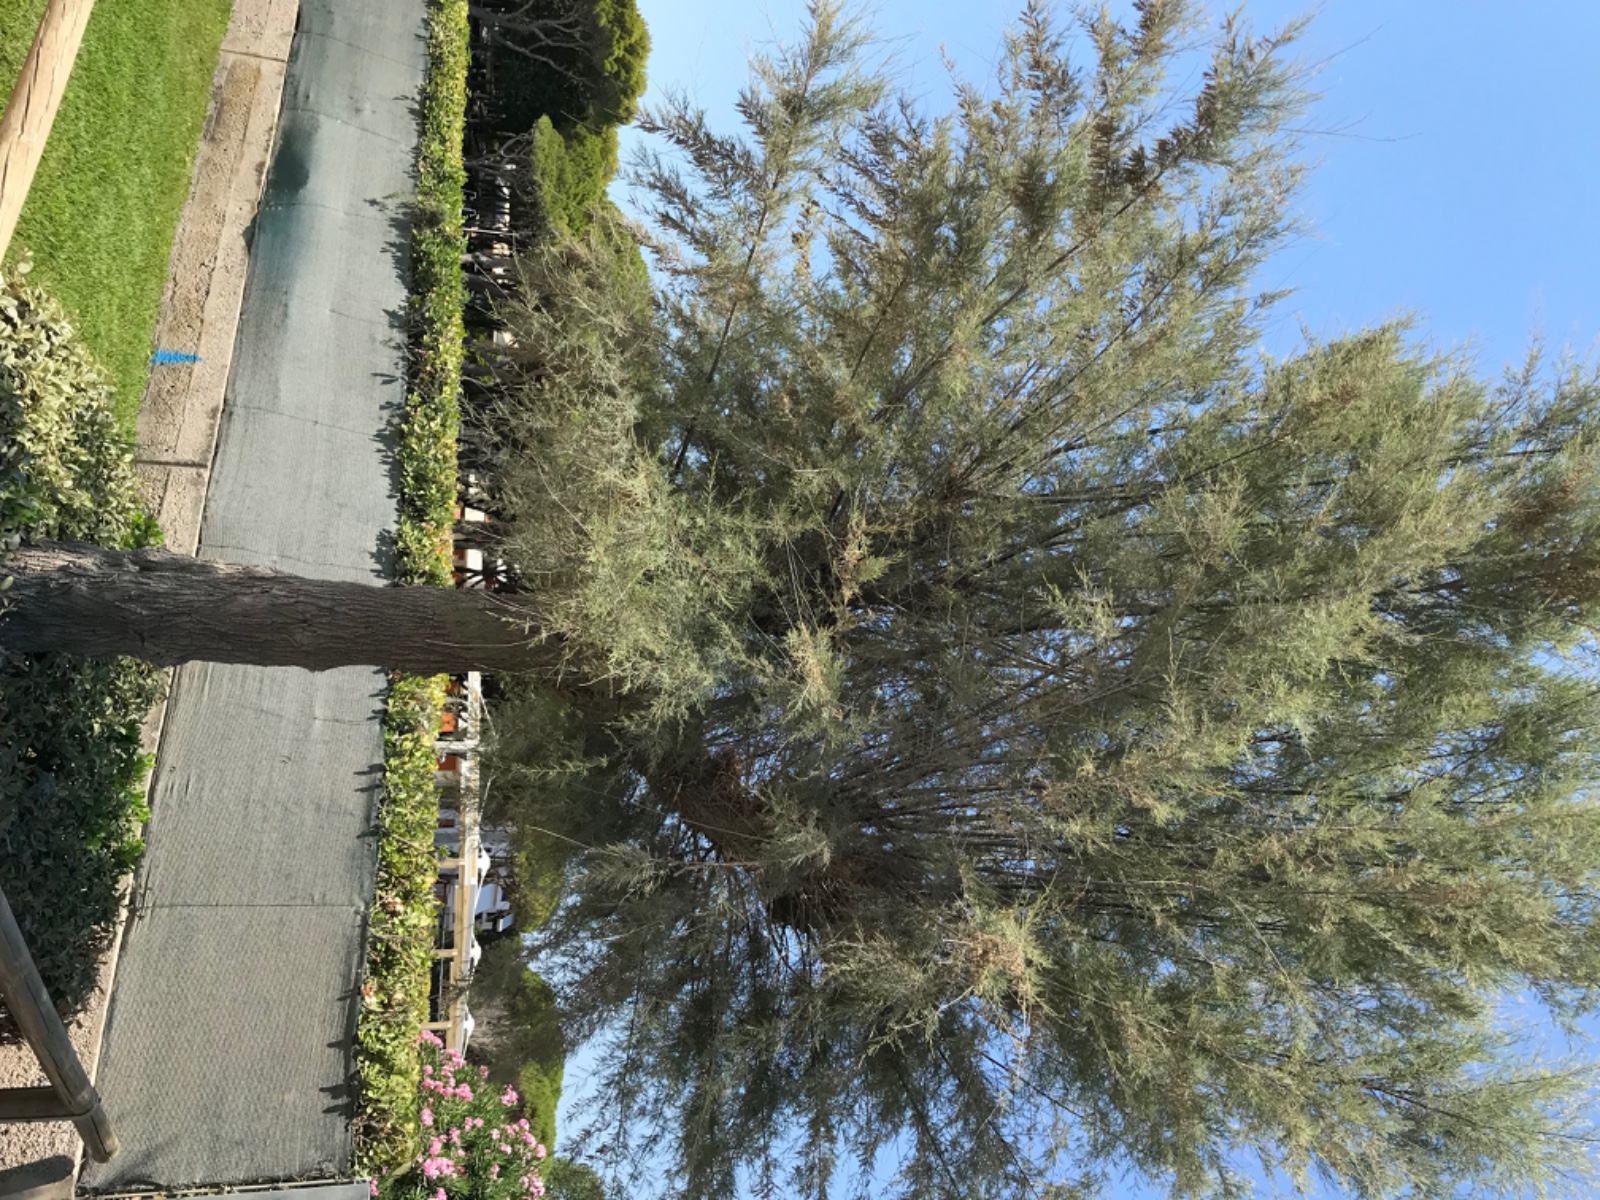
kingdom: Fungi
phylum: Basidiomycota
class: Agaricomycetes
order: Hymenochaetales
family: Hymenochaetaceae
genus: Inocutis
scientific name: Inocutis tamaricis
